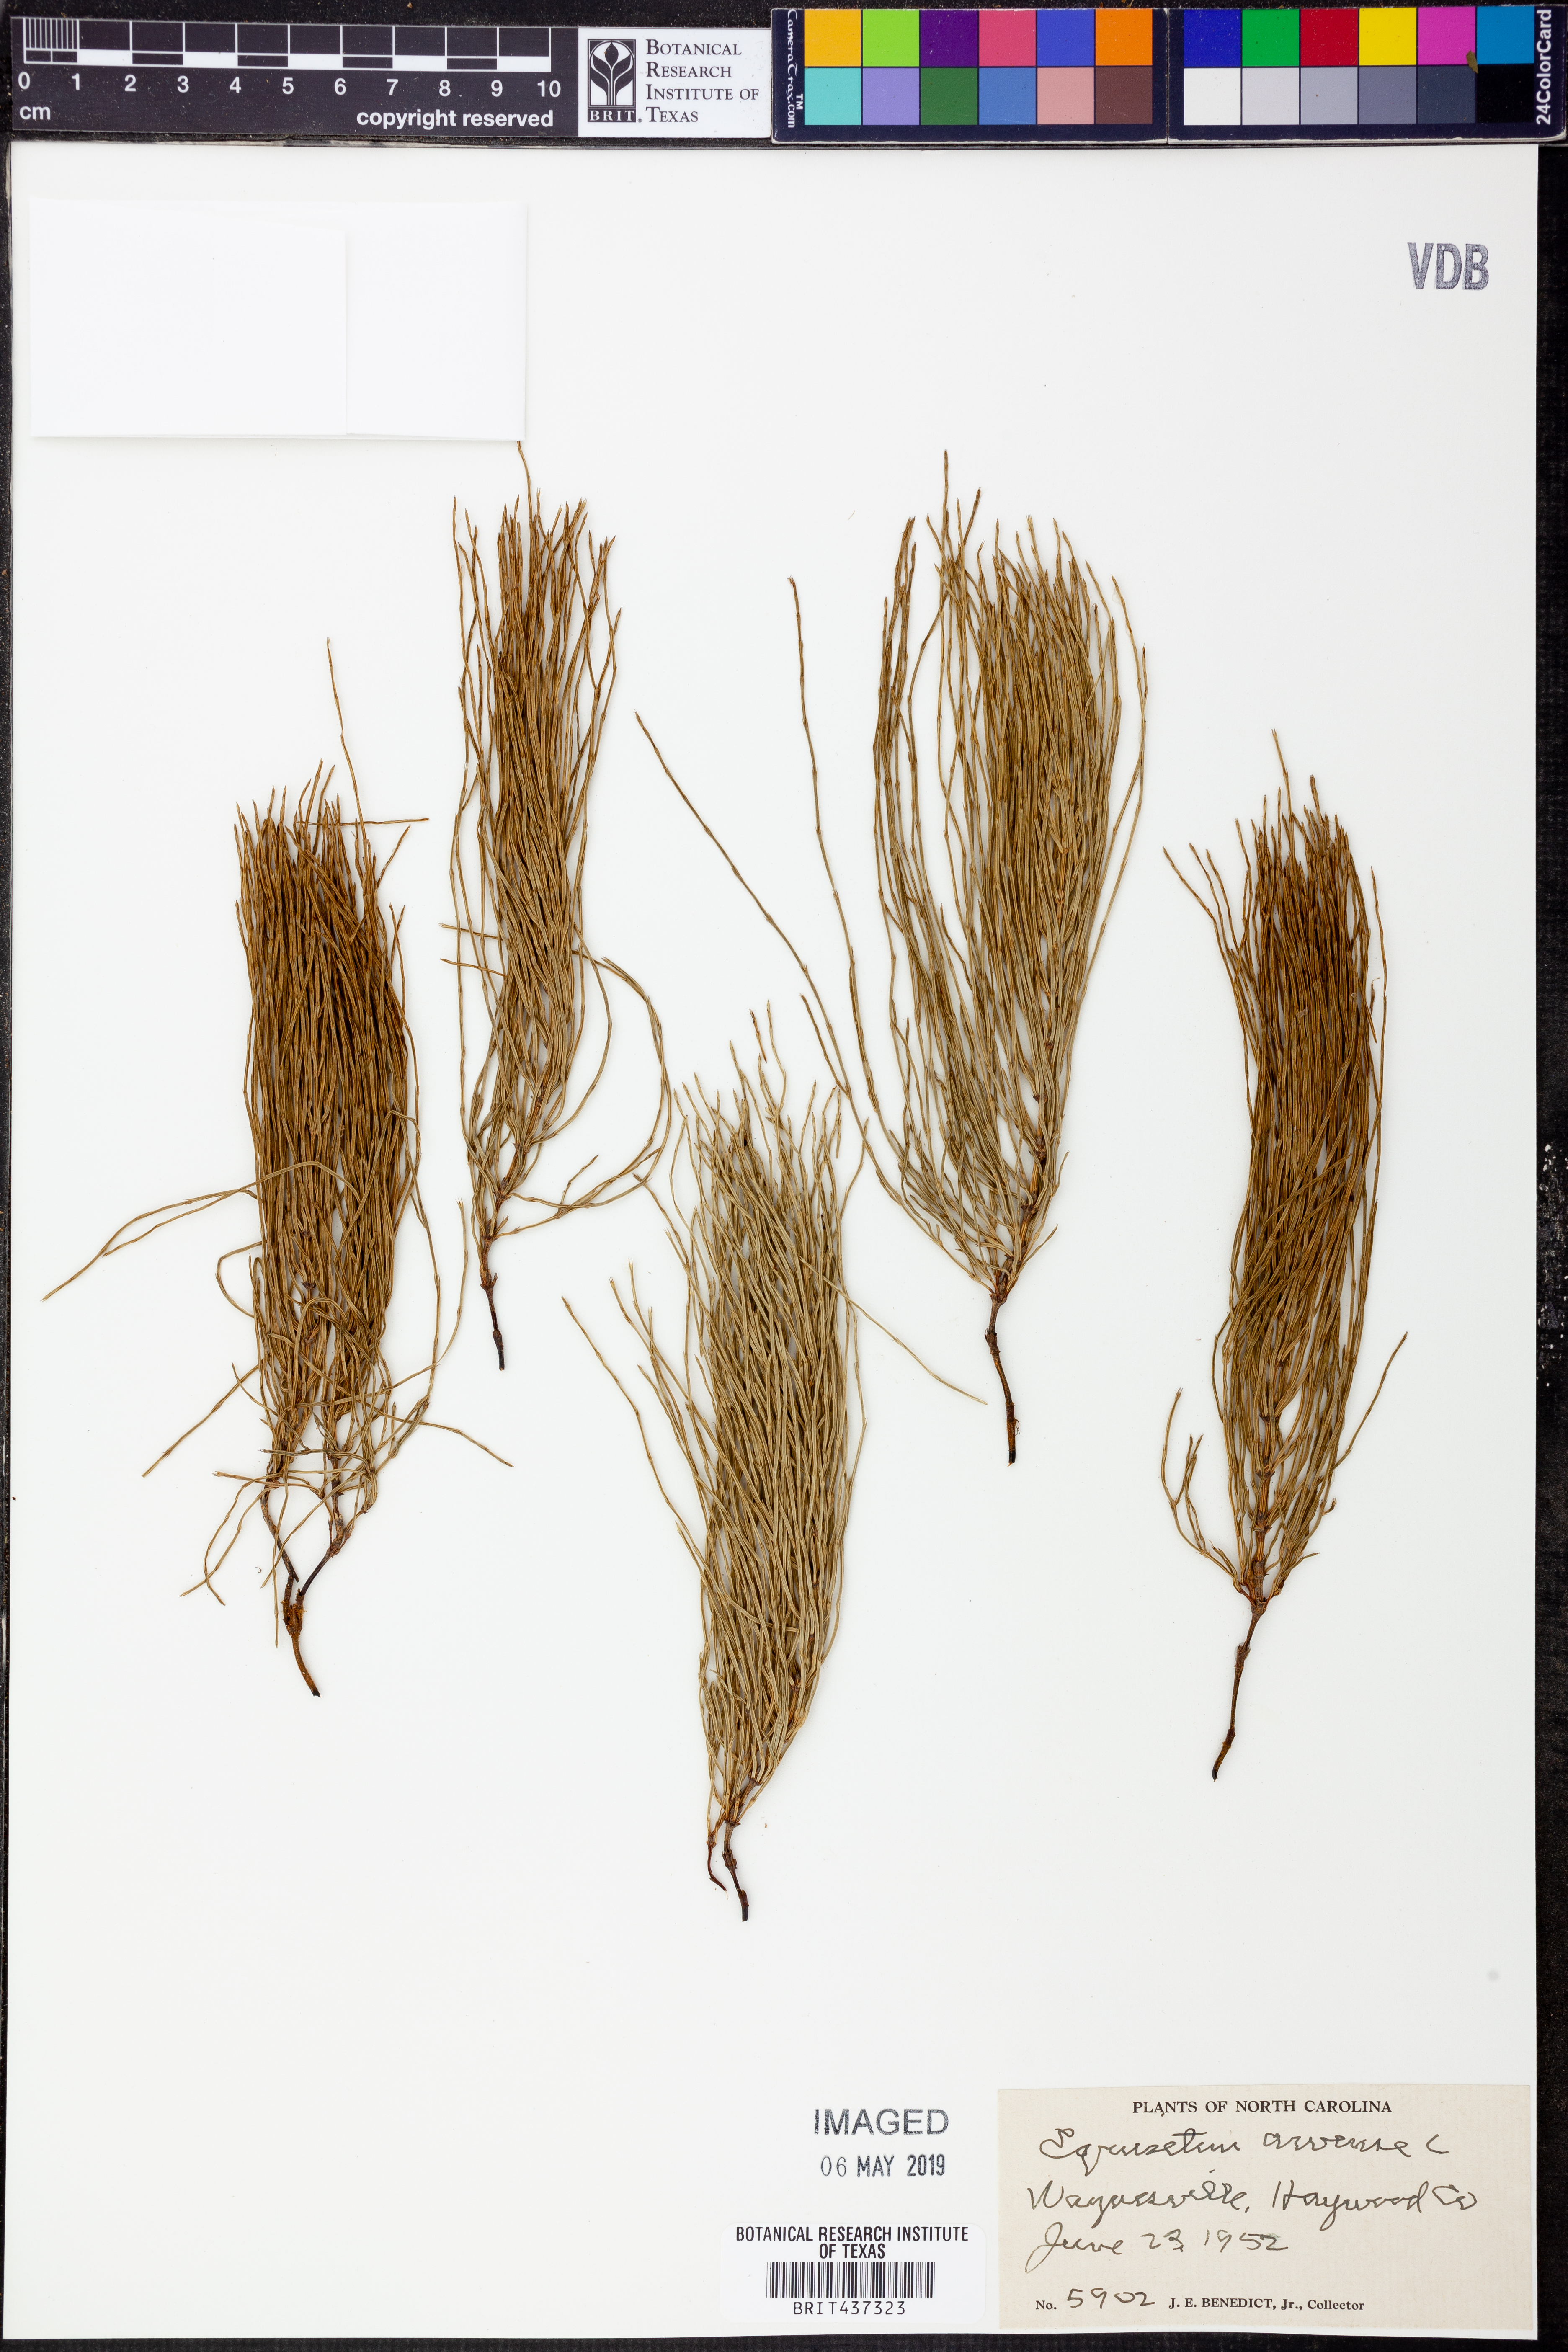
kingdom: Plantae
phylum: Tracheophyta
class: Polypodiopsida
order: Equisetales
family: Equisetaceae
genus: Equisetum
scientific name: Equisetum arvense
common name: Field horsetail
